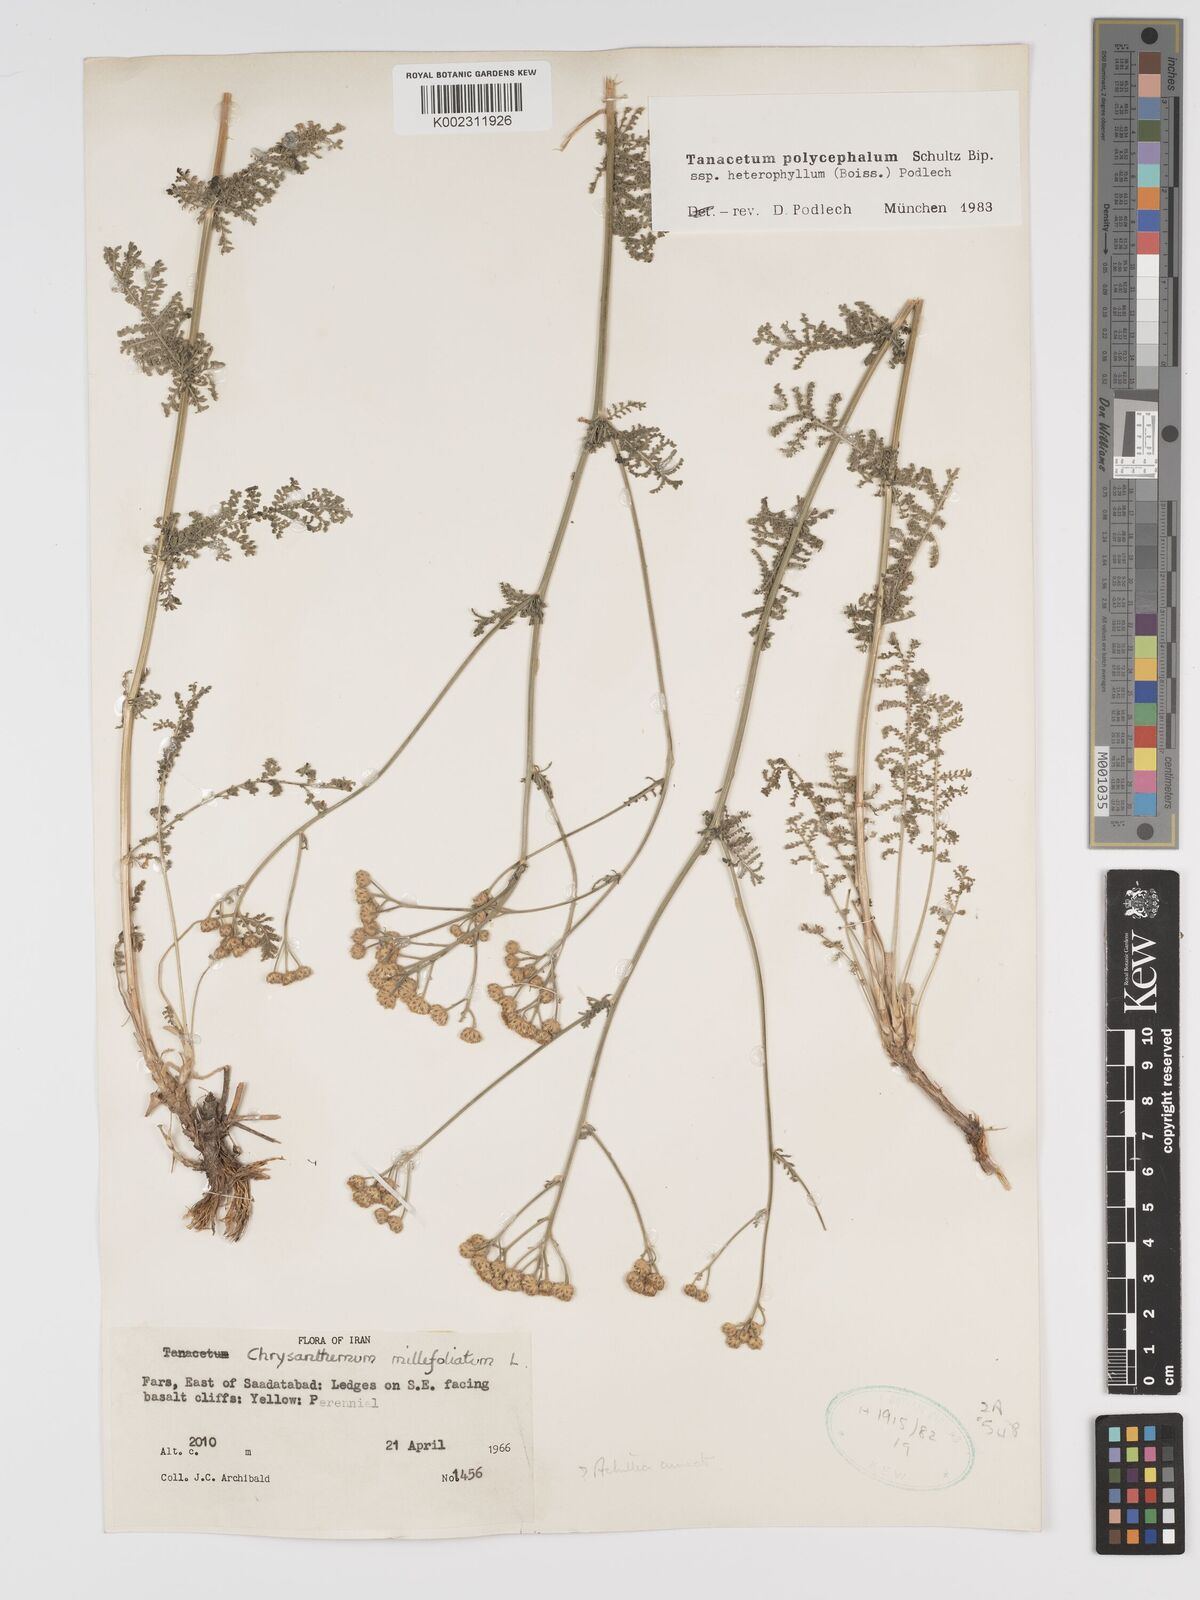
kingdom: Plantae
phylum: Tracheophyta
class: Magnoliopsida
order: Asterales
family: Asteraceae
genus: Tanacetum
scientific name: Tanacetum polycephalum
